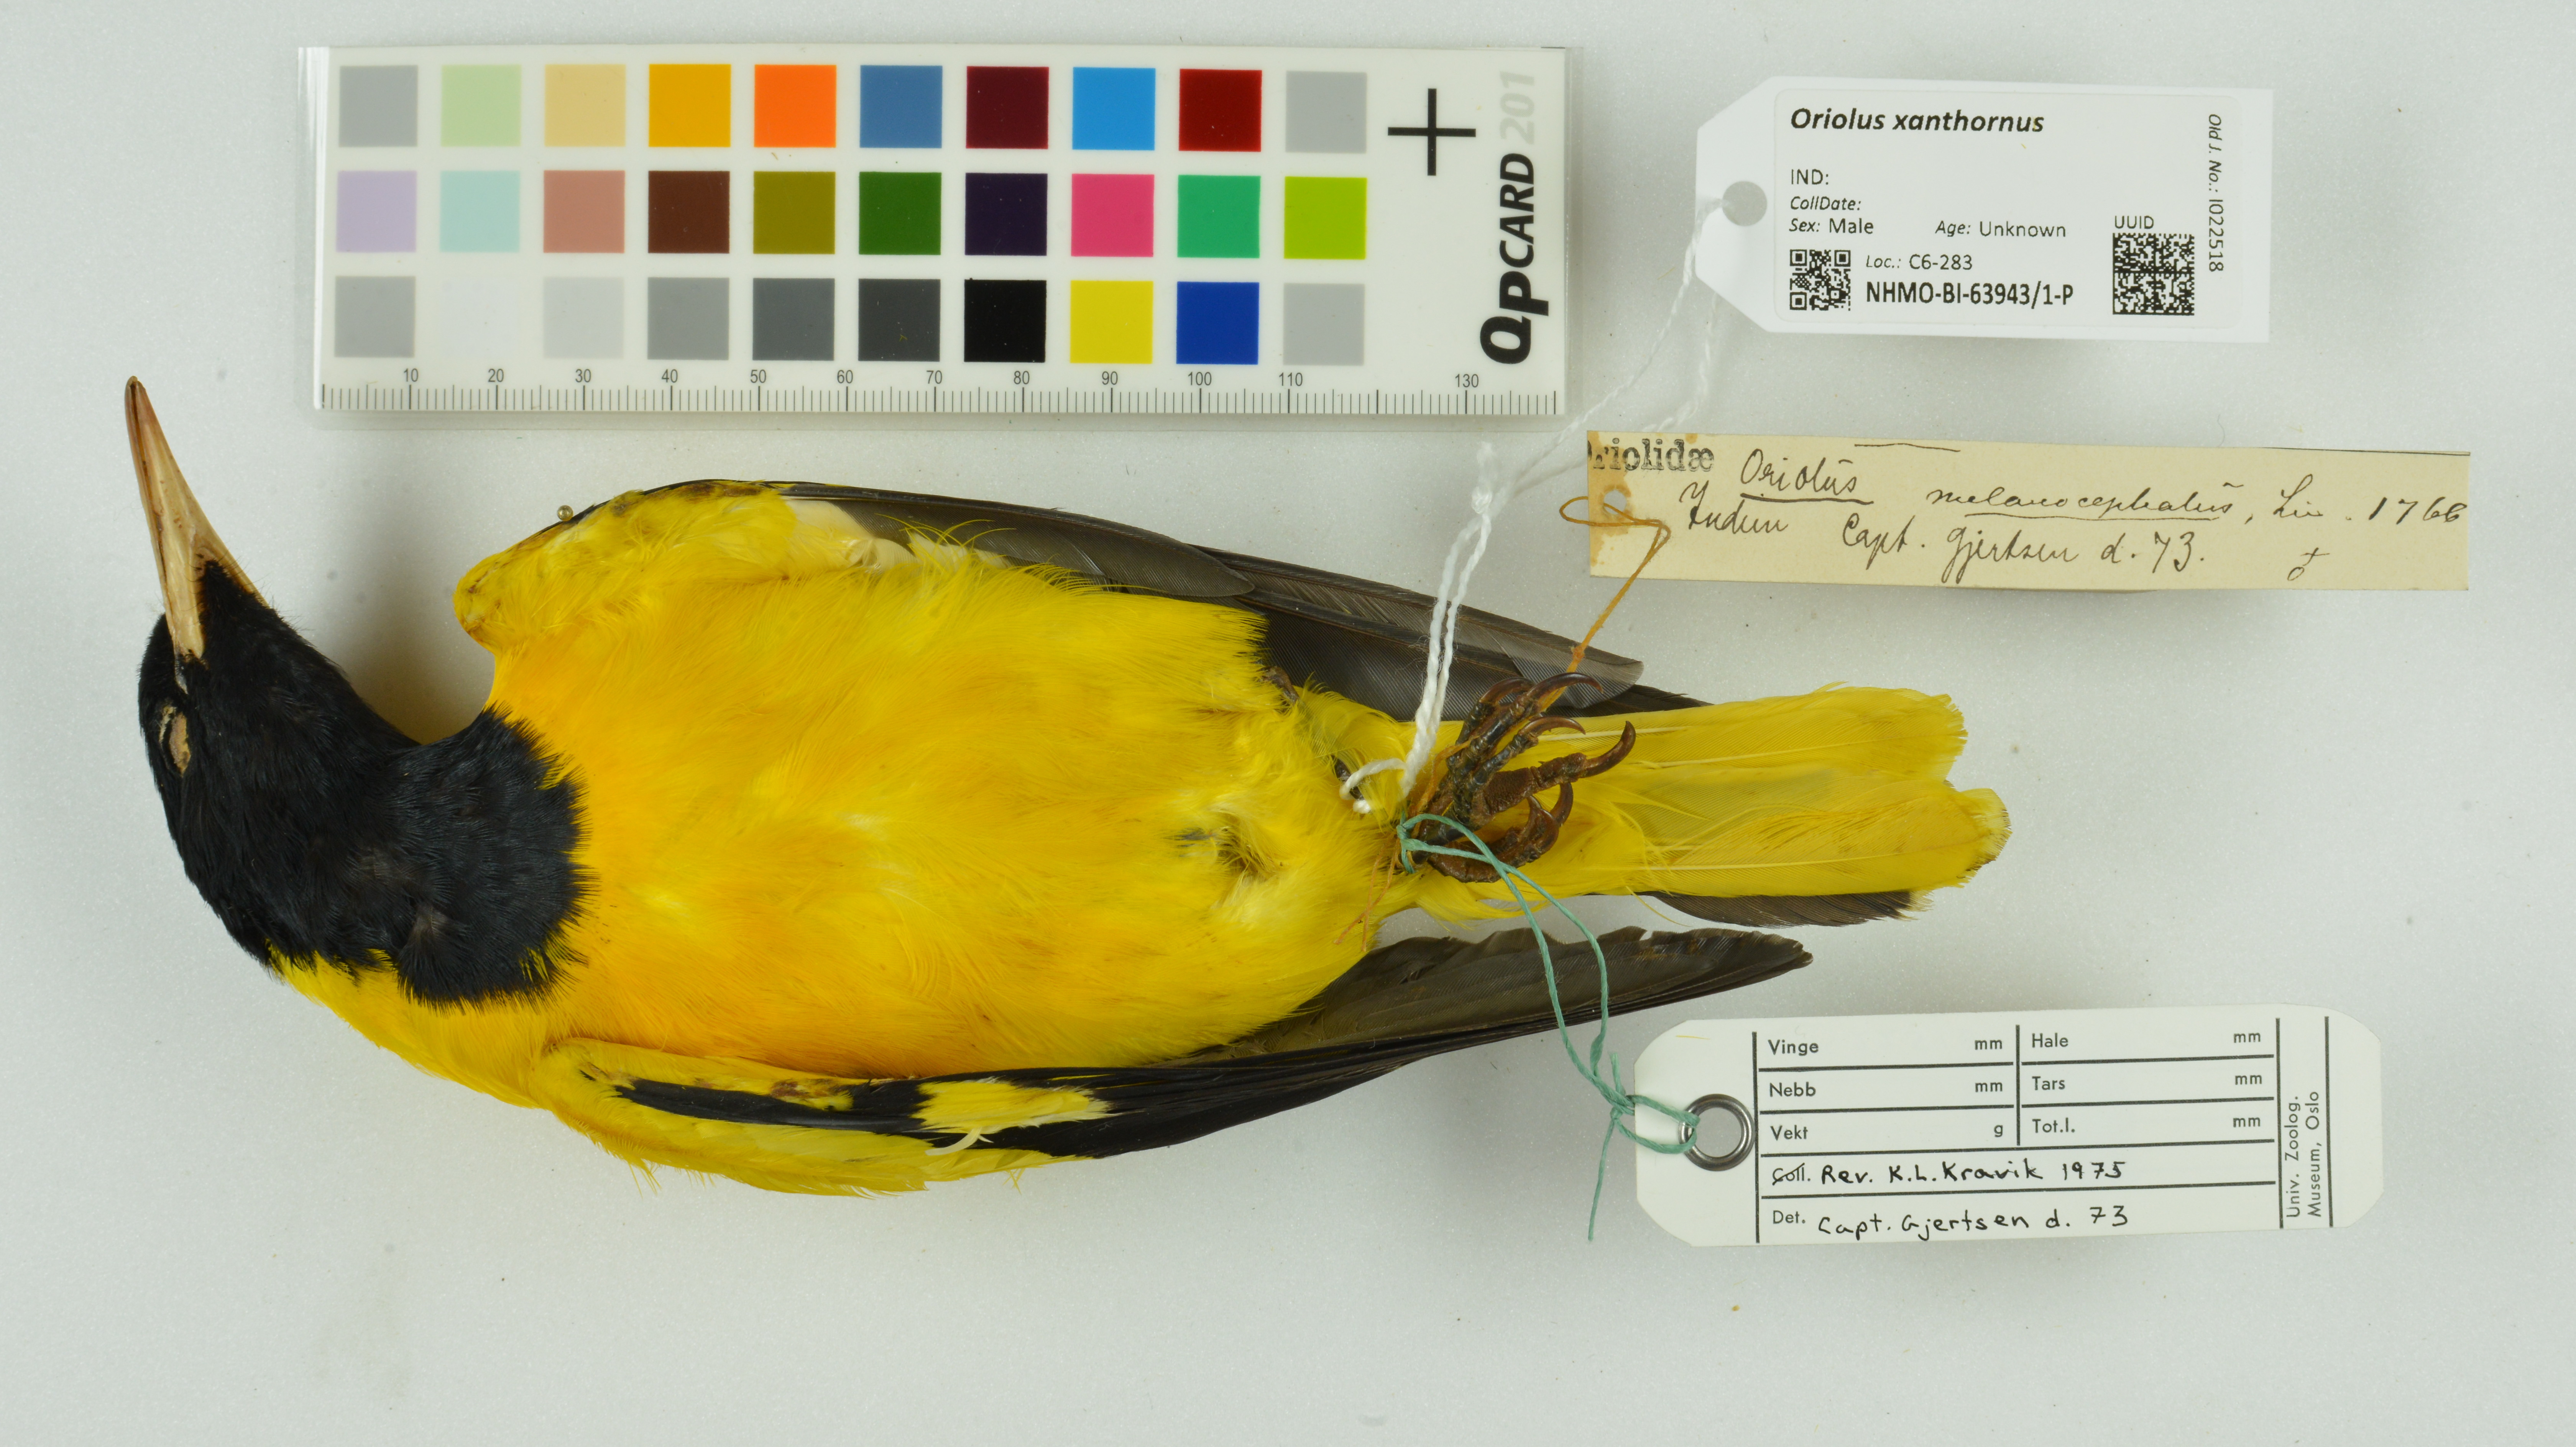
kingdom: Animalia
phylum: Chordata
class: Aves
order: Passeriformes
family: Oriolidae
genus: Oriolus
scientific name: Oriolus xanthornus
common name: Black-hooded oriole
